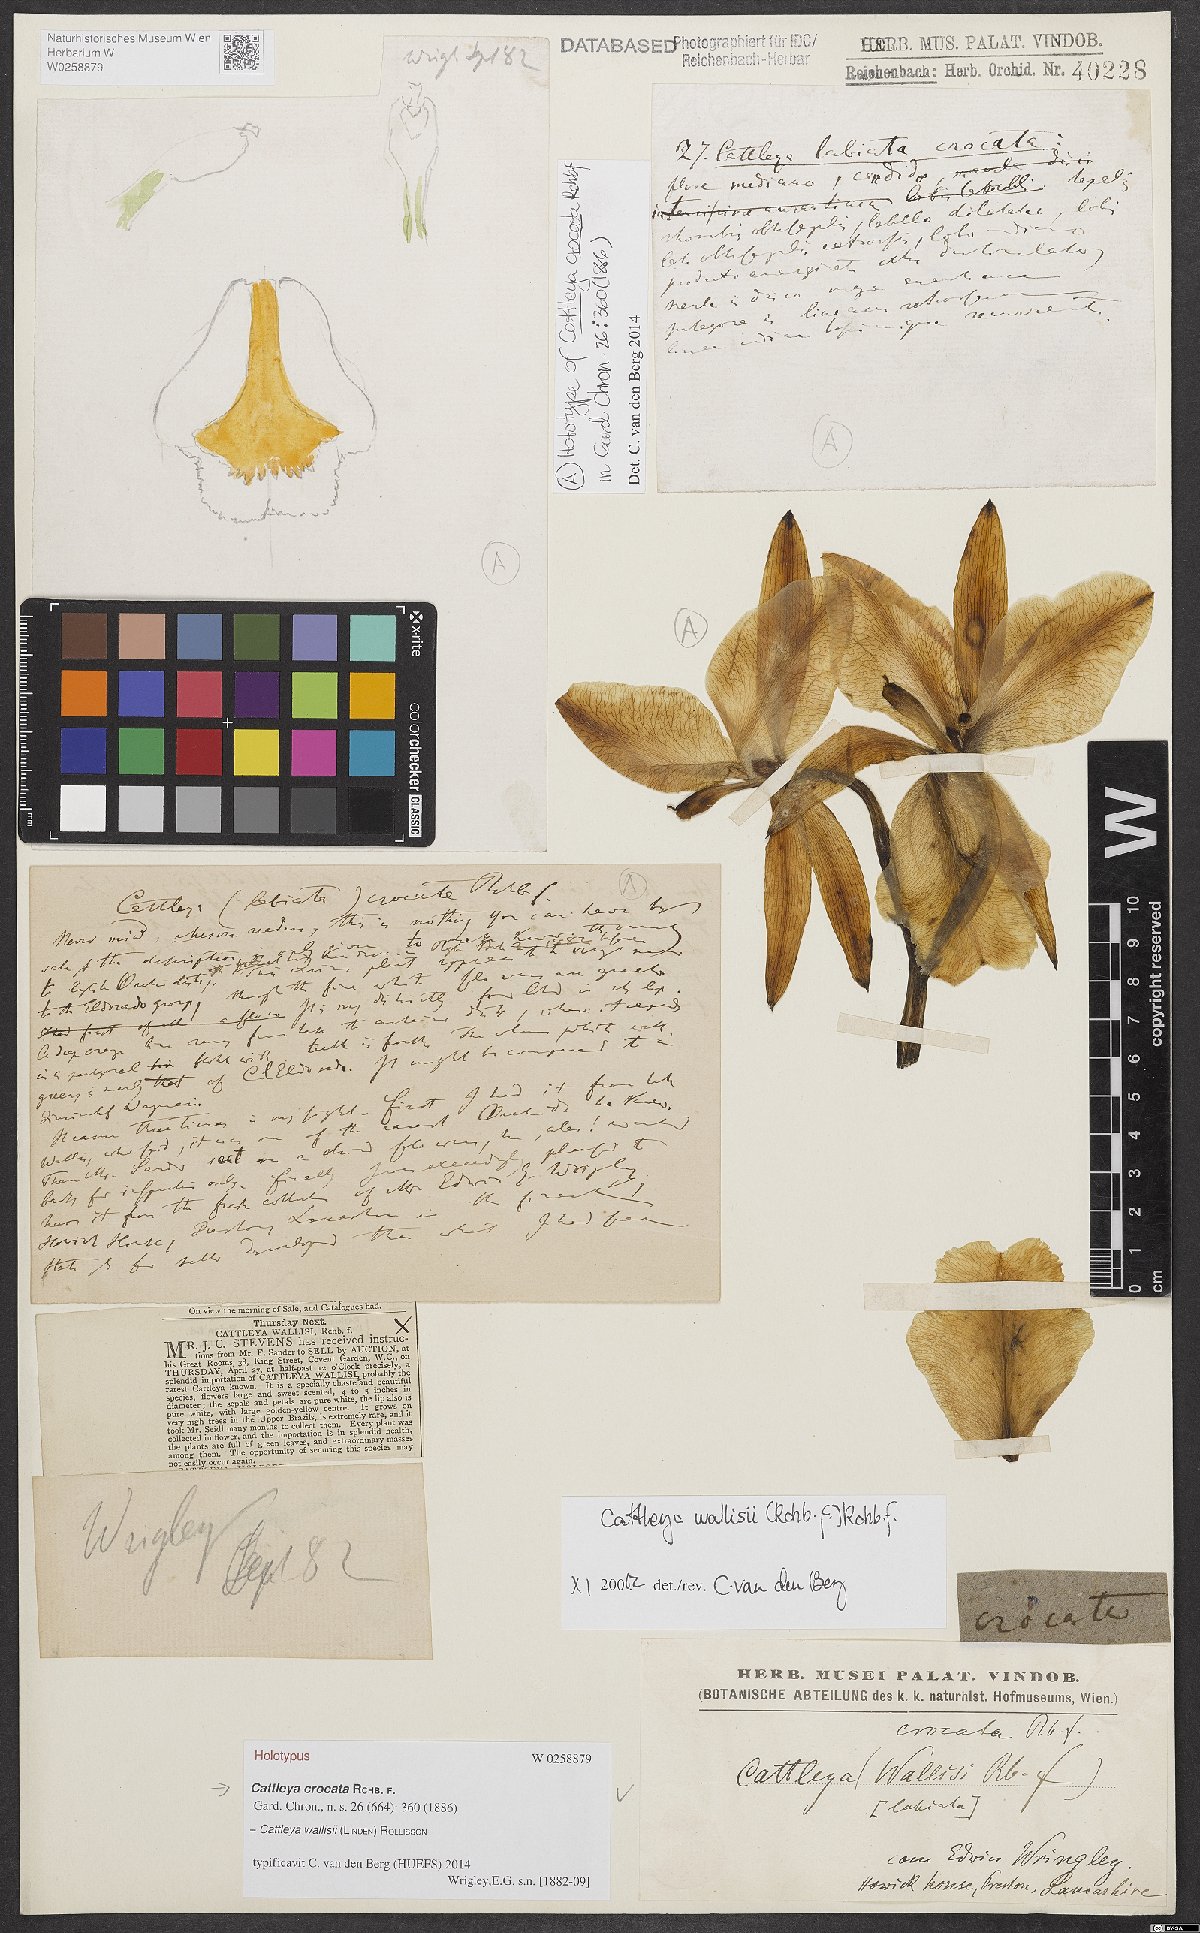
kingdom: Plantae
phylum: Tracheophyta
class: Liliopsida
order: Asparagales
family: Orchidaceae
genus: Cattleya
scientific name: Cattleya wallisii
